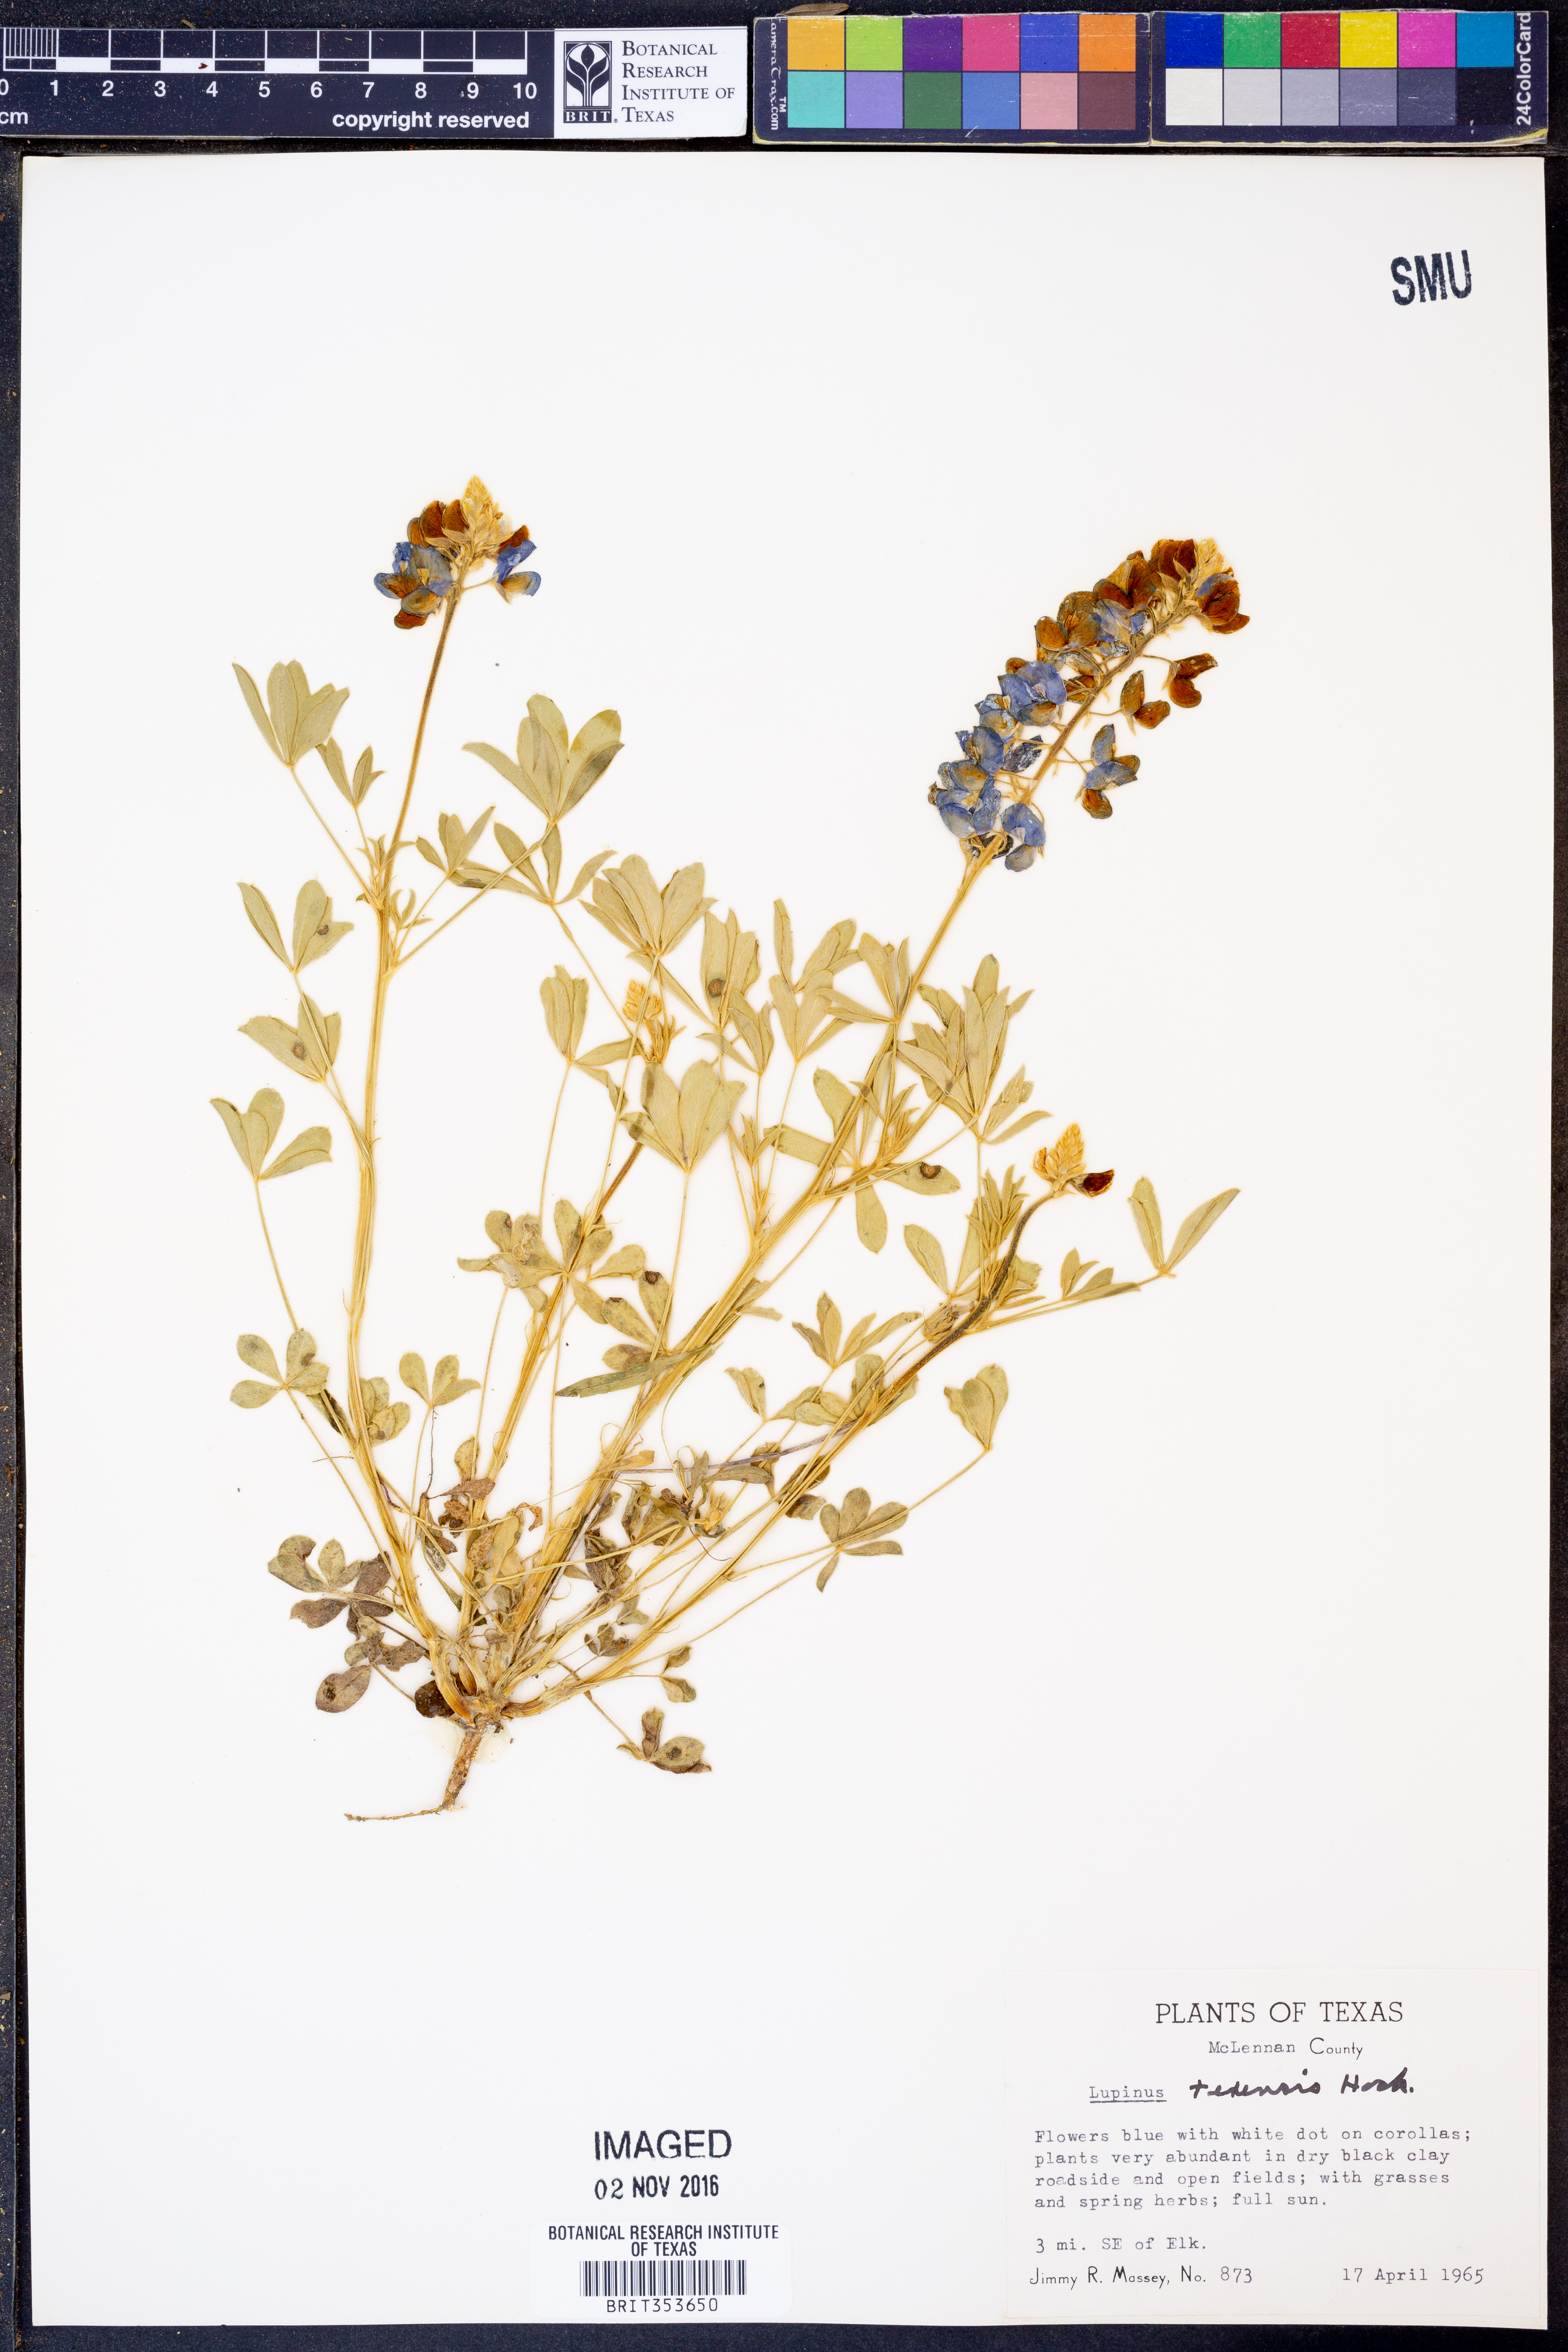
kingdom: Plantae
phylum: Tracheophyta
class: Magnoliopsida
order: Fabales
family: Fabaceae
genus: Lupinus
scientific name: Lupinus texensis
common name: Texas bluebonnet
